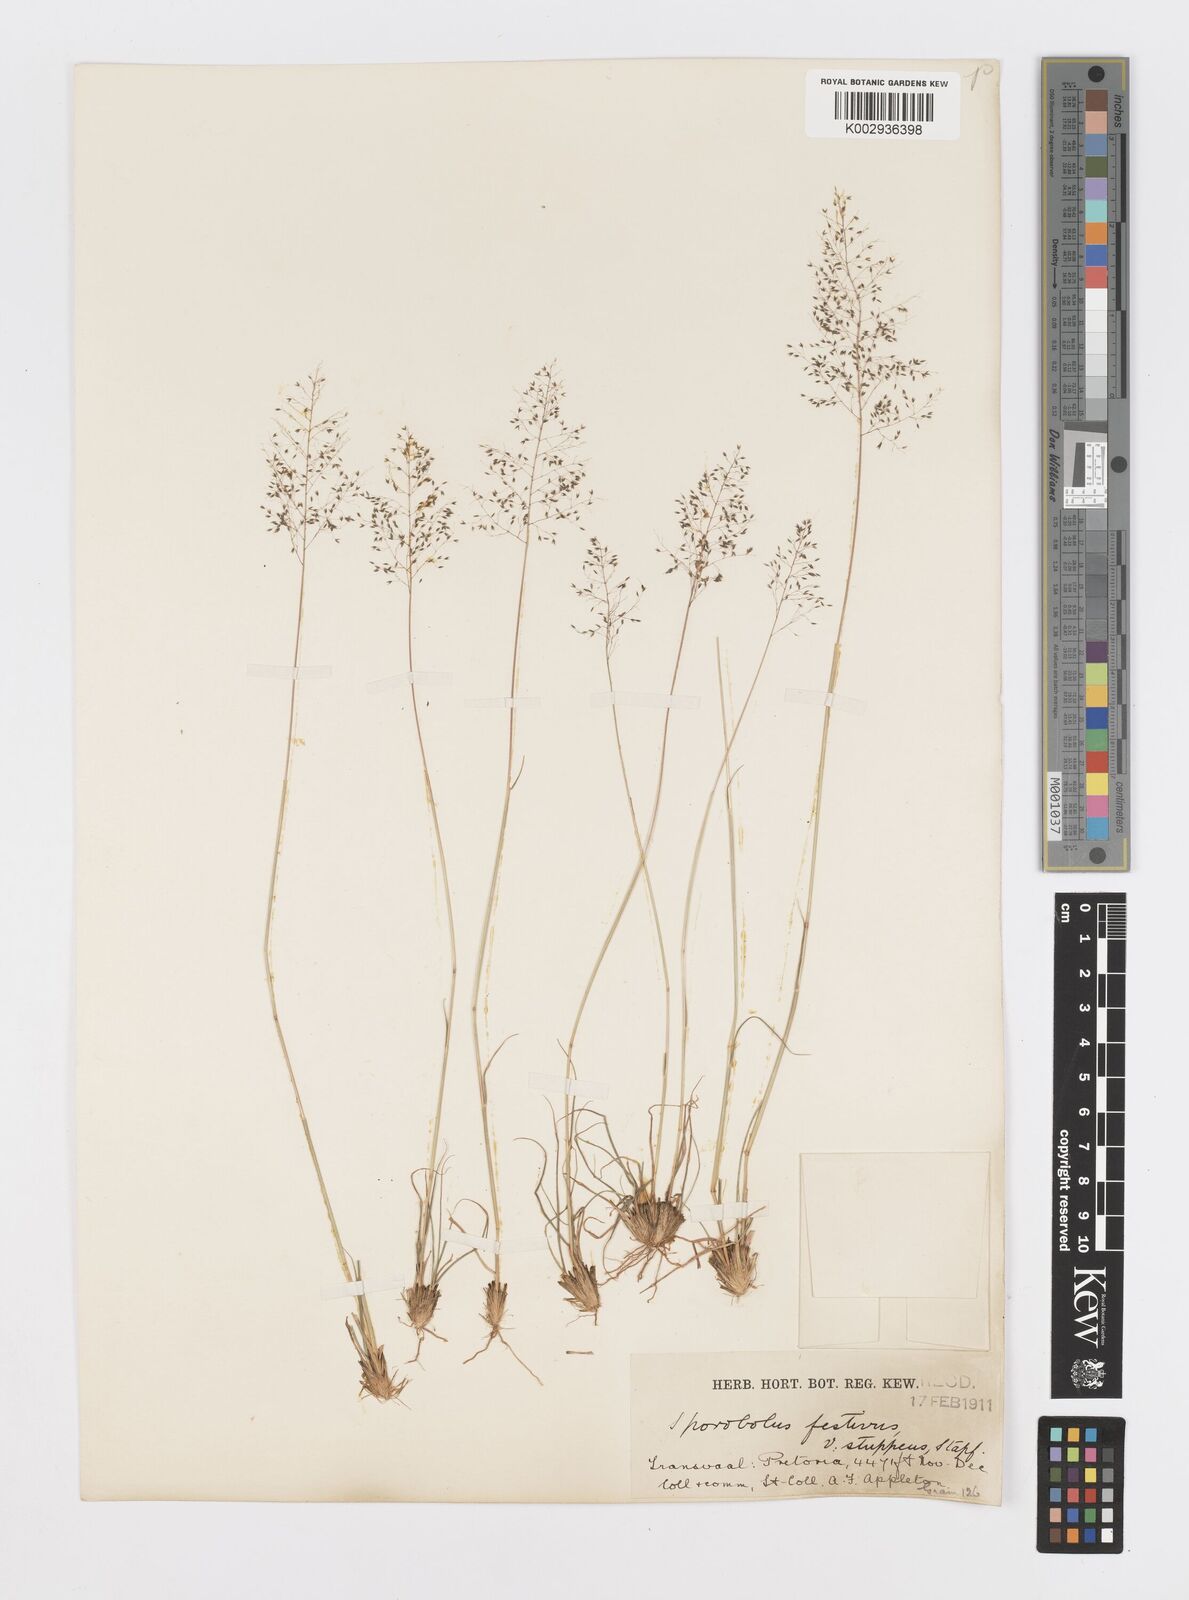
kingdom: Plantae
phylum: Tracheophyta
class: Liliopsida
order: Poales
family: Poaceae
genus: Sporobolus
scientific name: Sporobolus stapfianus
